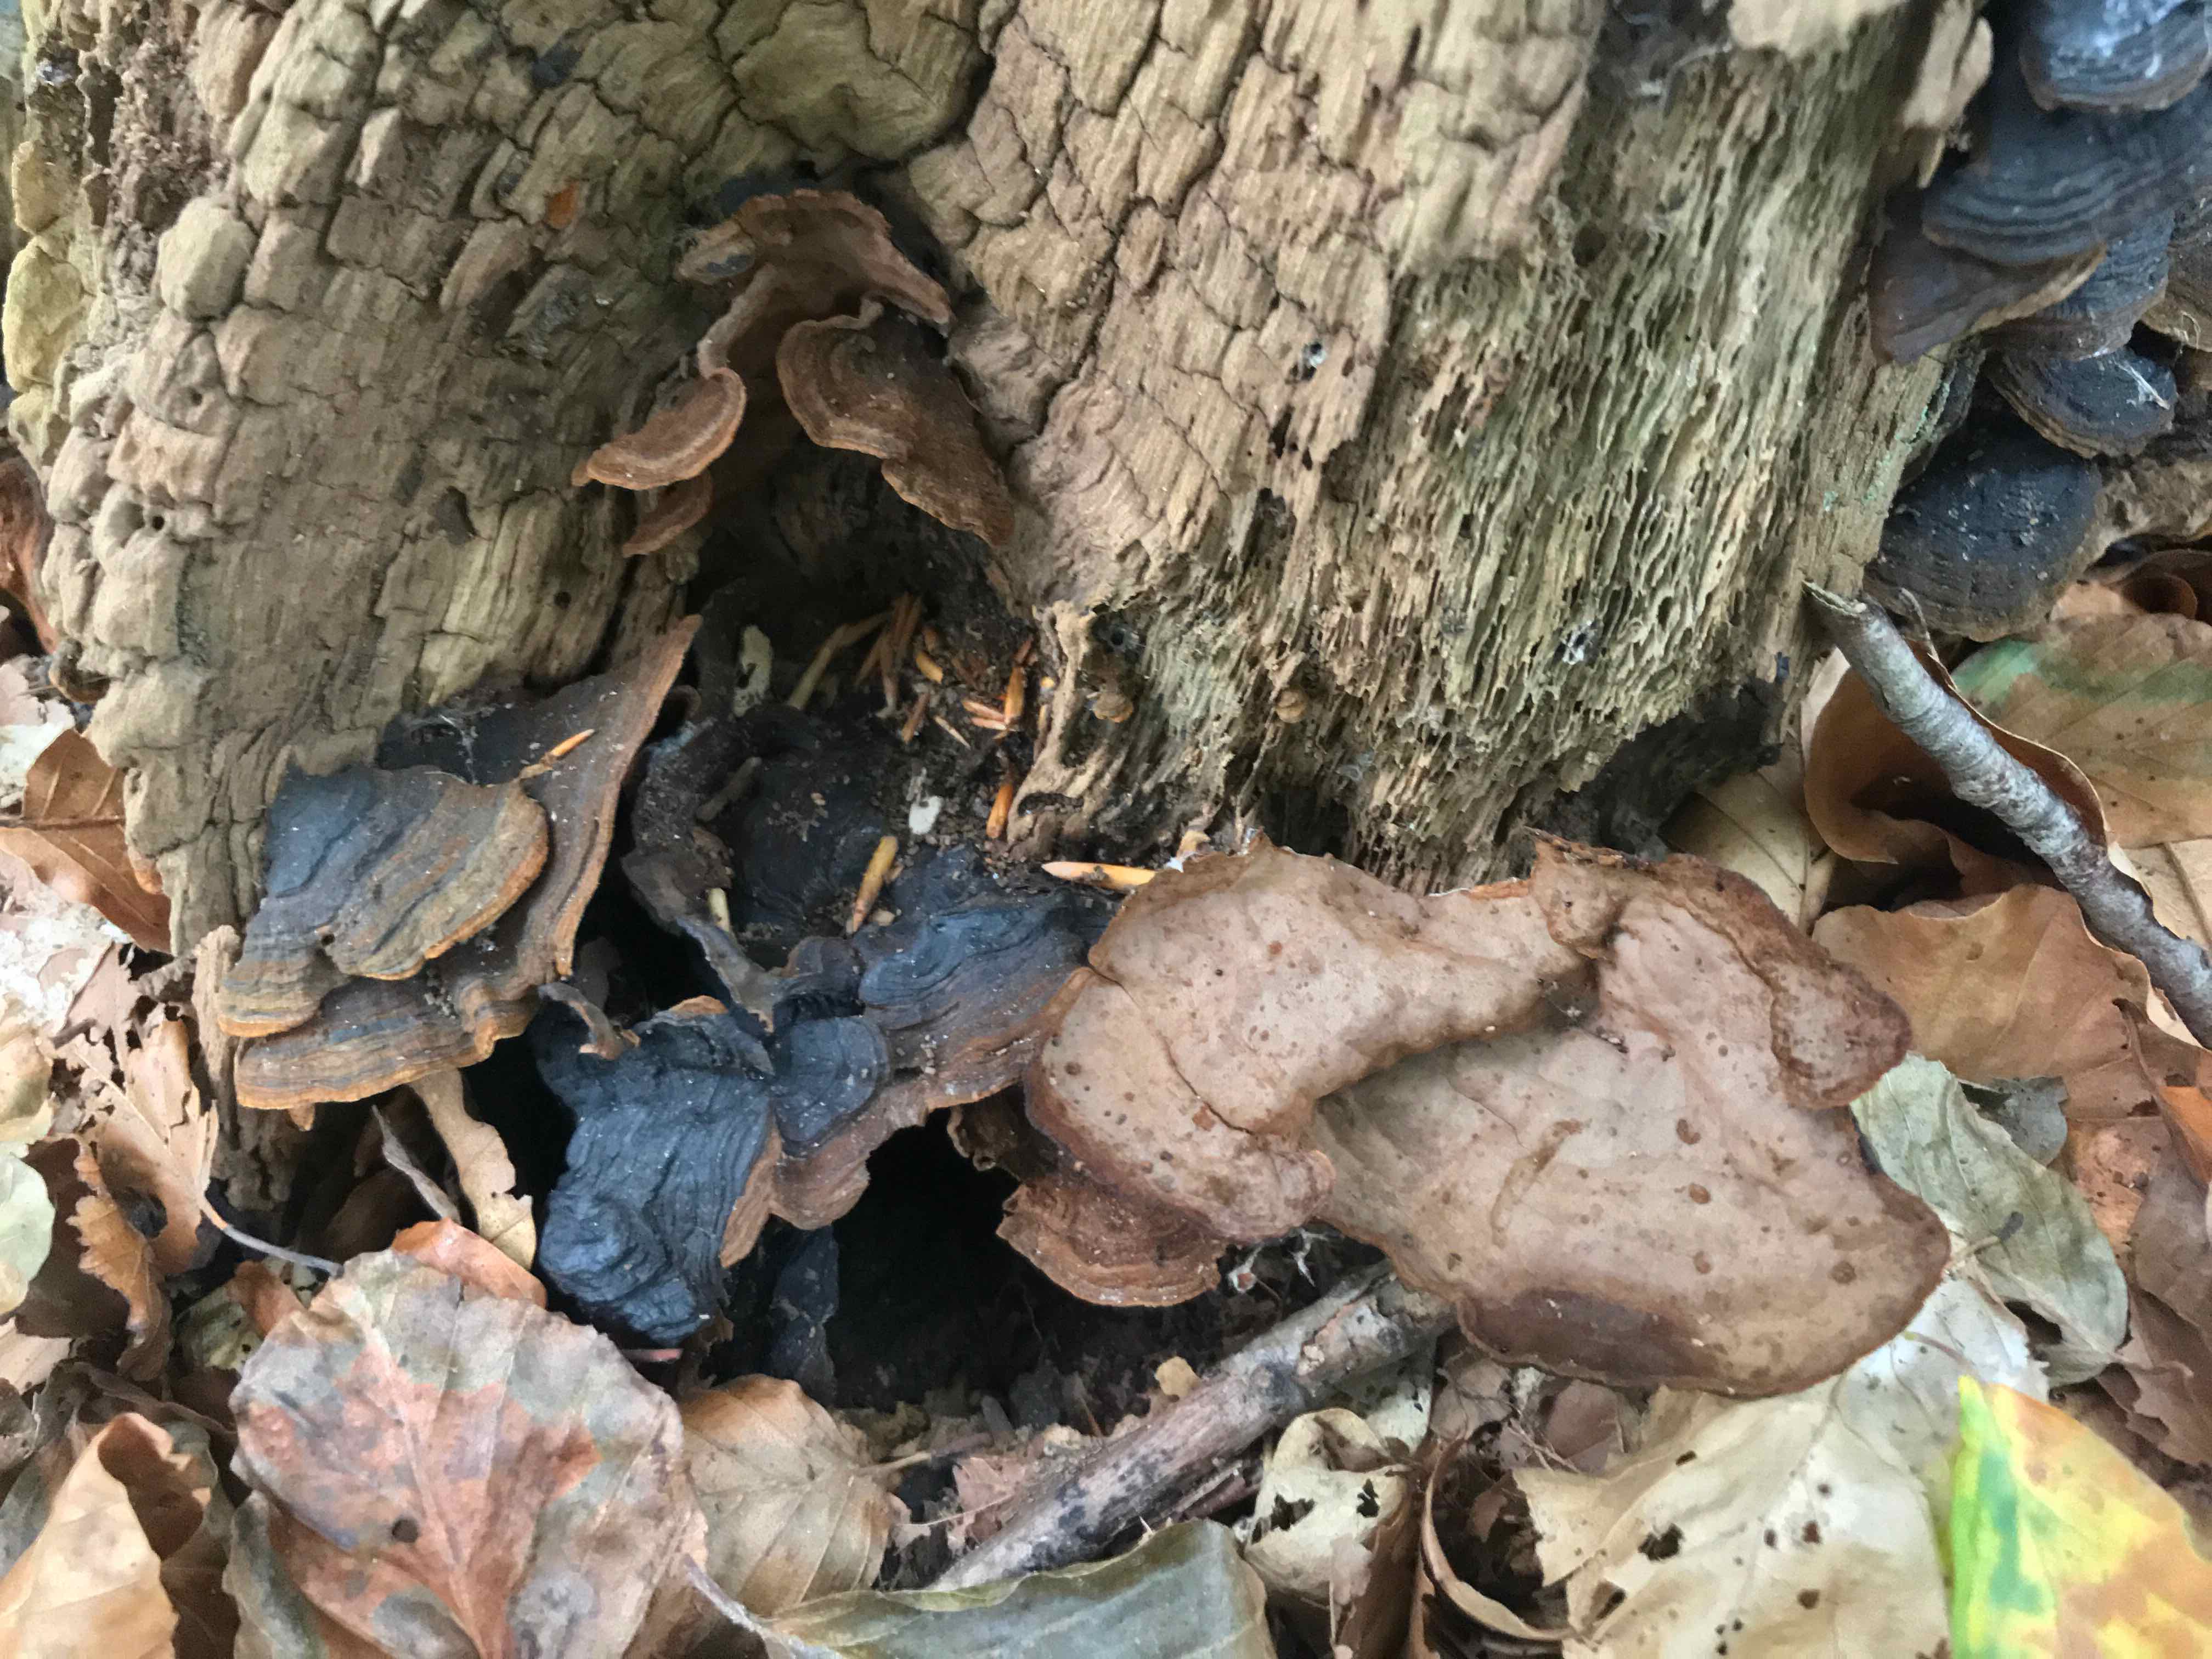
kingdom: Fungi
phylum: Basidiomycota
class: Agaricomycetes
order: Hymenochaetales
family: Hymenochaetaceae
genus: Hymenochaete
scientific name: Hymenochaete rubiginosa
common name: stiv ruslædersvamp
